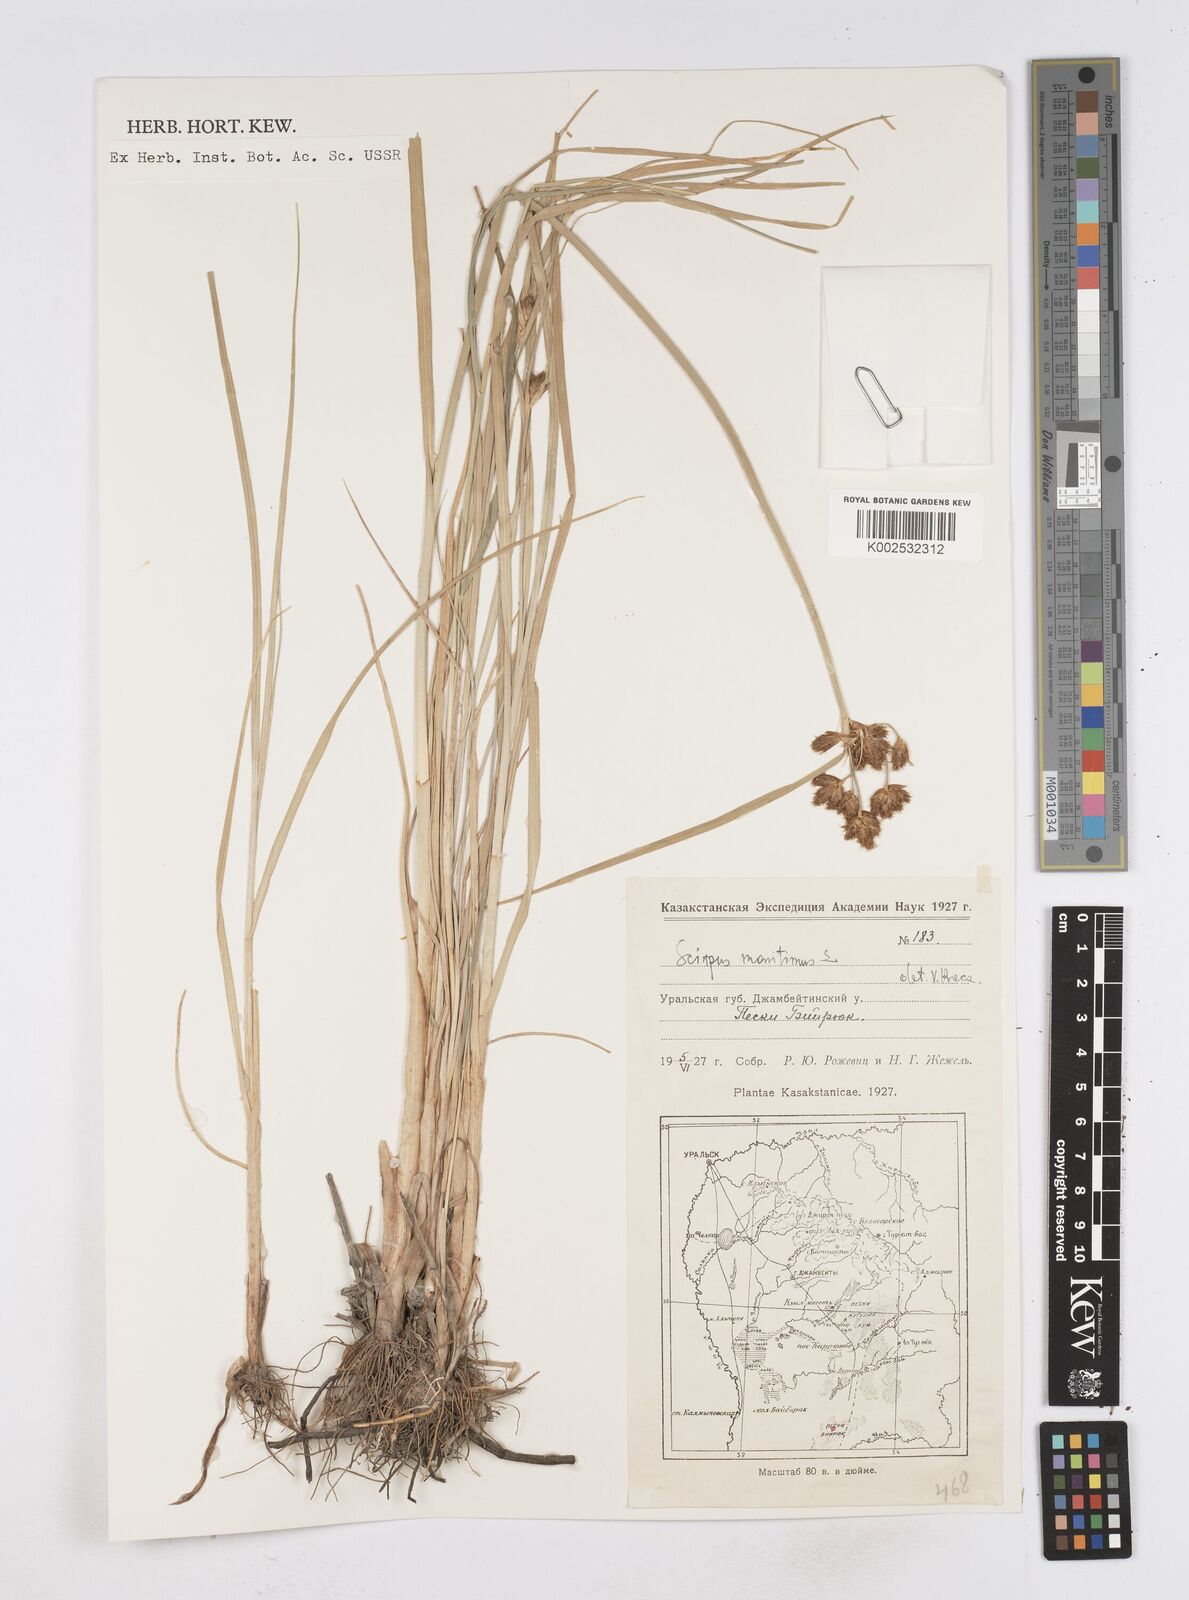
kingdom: Plantae
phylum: Tracheophyta
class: Liliopsida
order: Poales
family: Cyperaceae
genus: Bolboschoenus
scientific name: Bolboschoenus maritimus
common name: Sea club-rush
